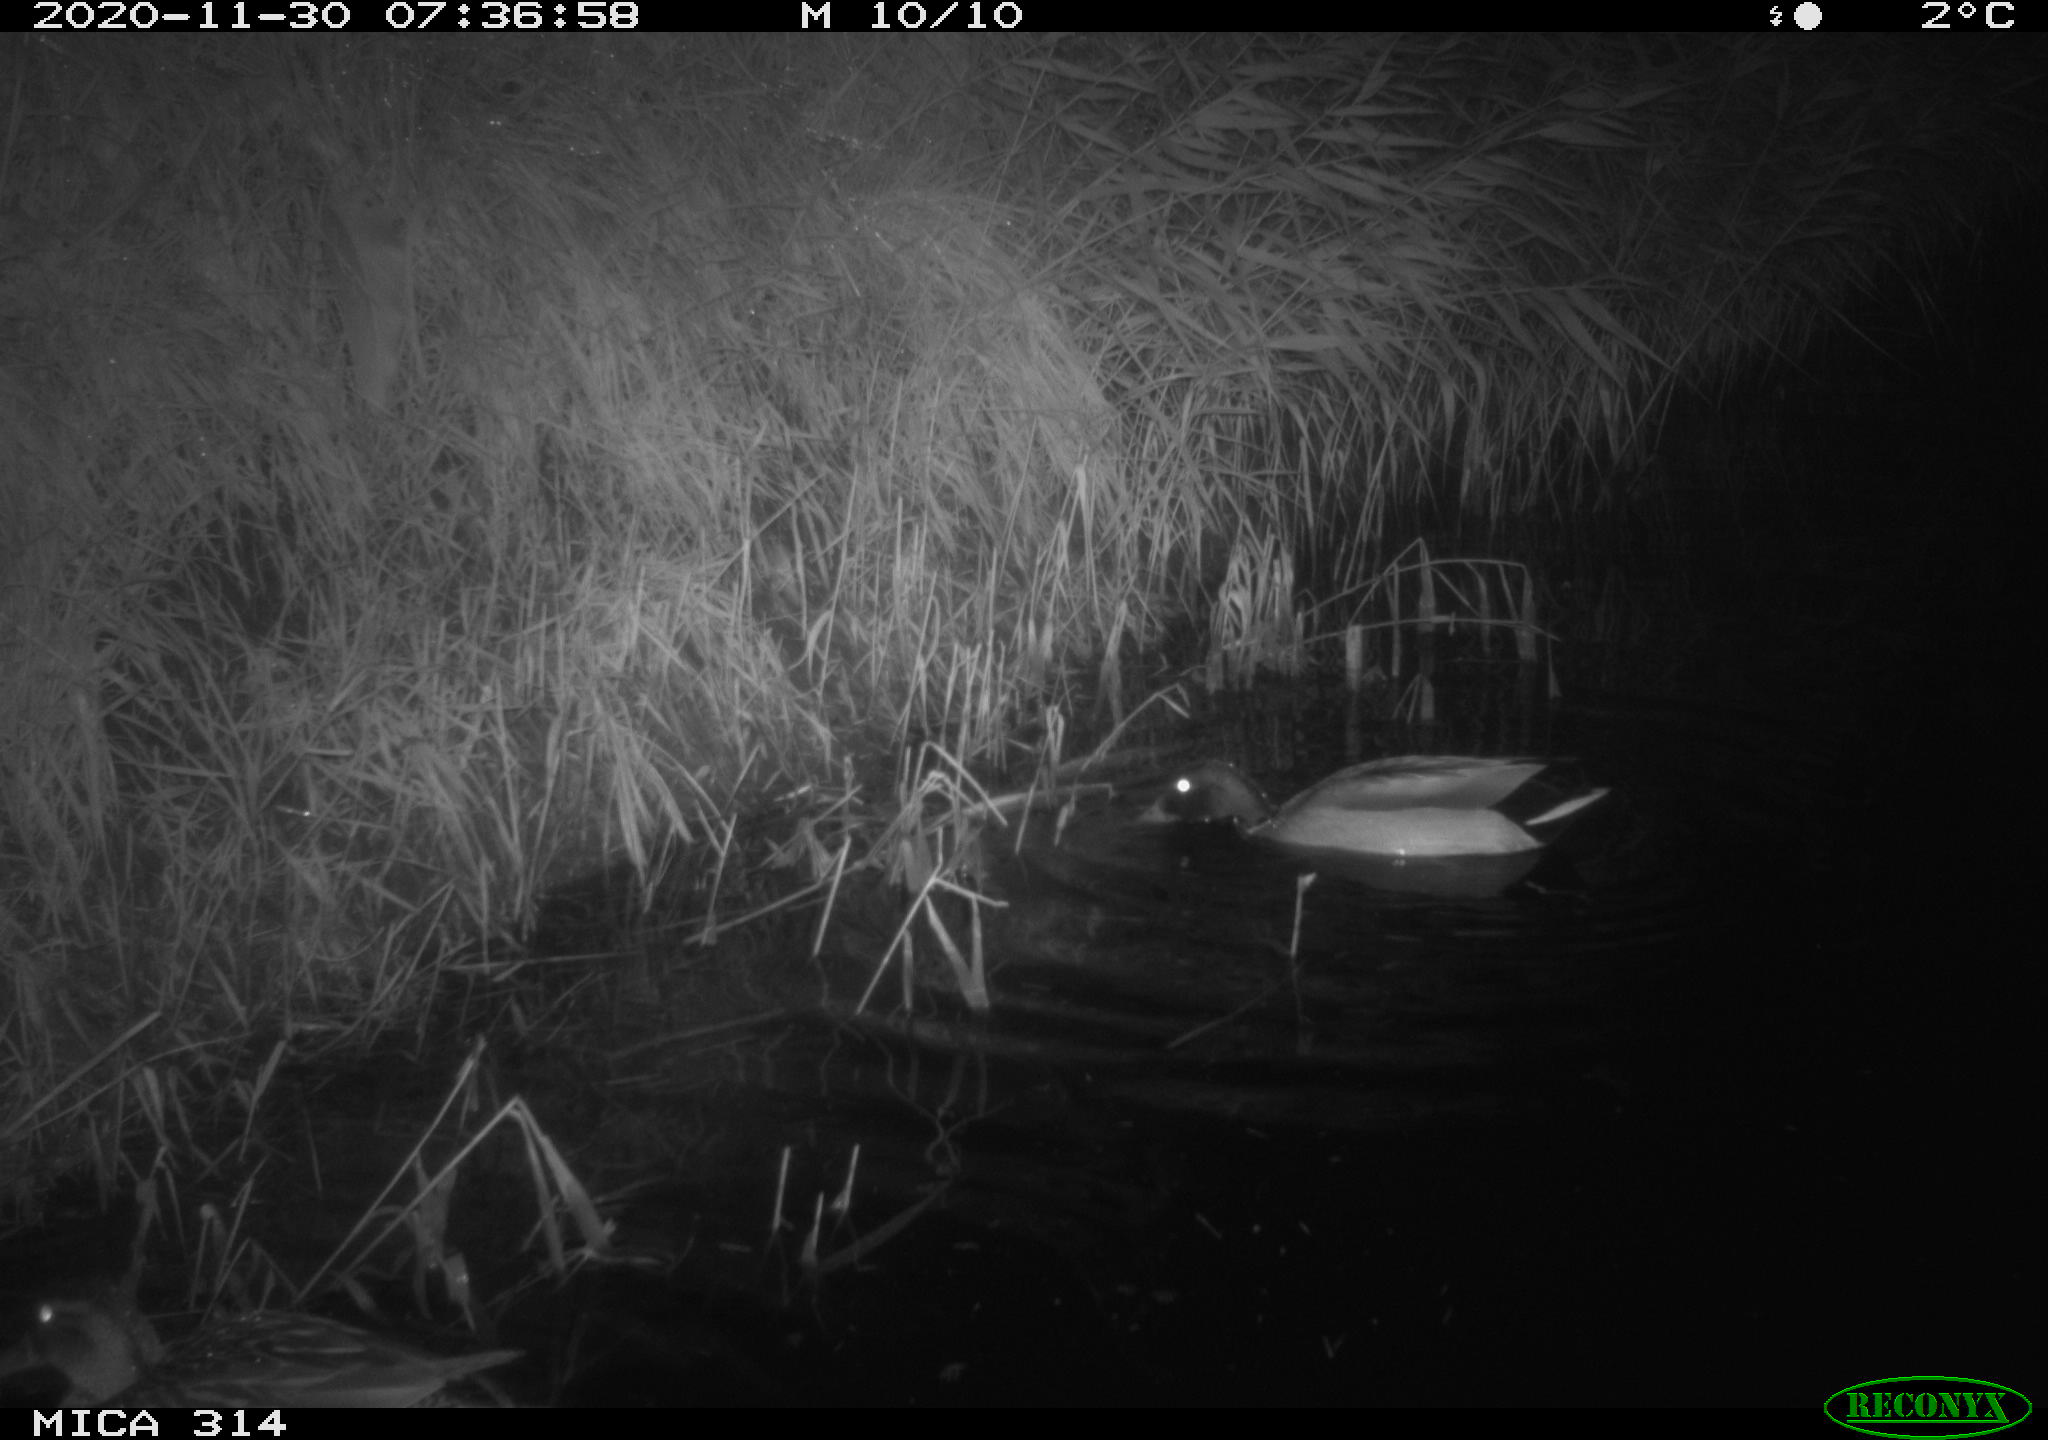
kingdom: Animalia
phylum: Chordata
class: Aves
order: Anseriformes
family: Anatidae
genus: Mareca
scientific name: Mareca strepera
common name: Gadwall
